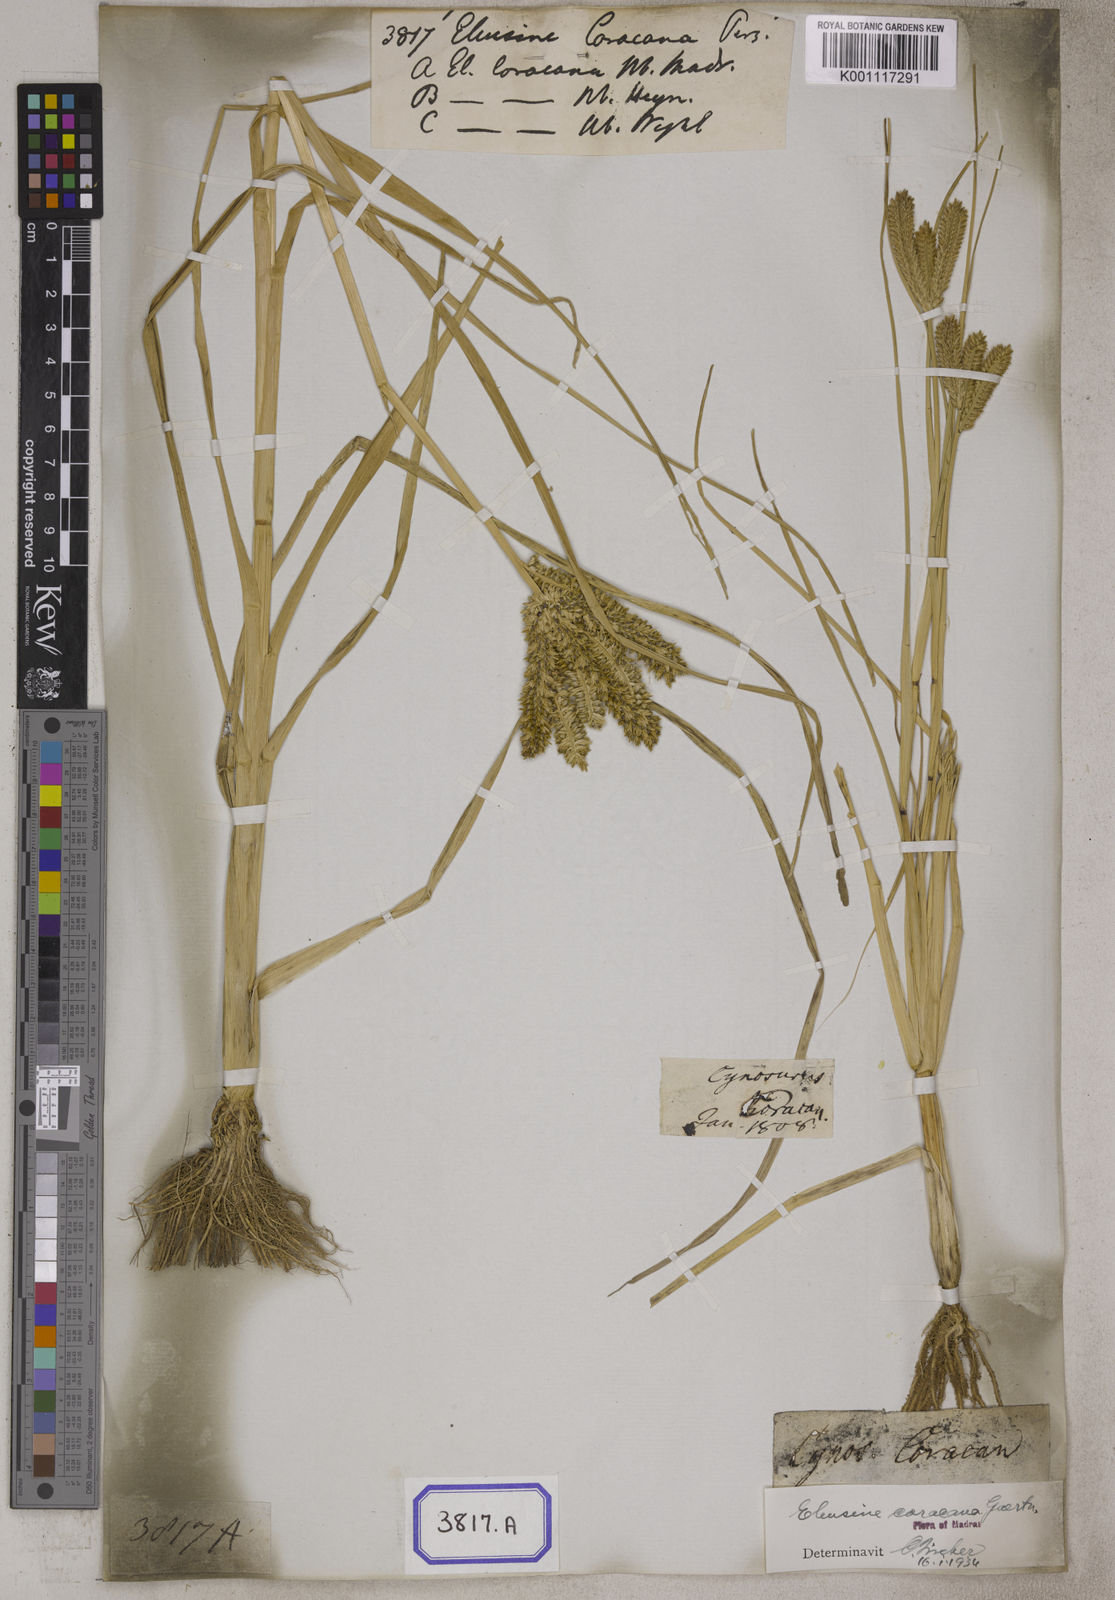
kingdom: Plantae
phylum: Tracheophyta
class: Liliopsida
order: Poales
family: Poaceae
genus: Eleusine
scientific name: Eleusine
